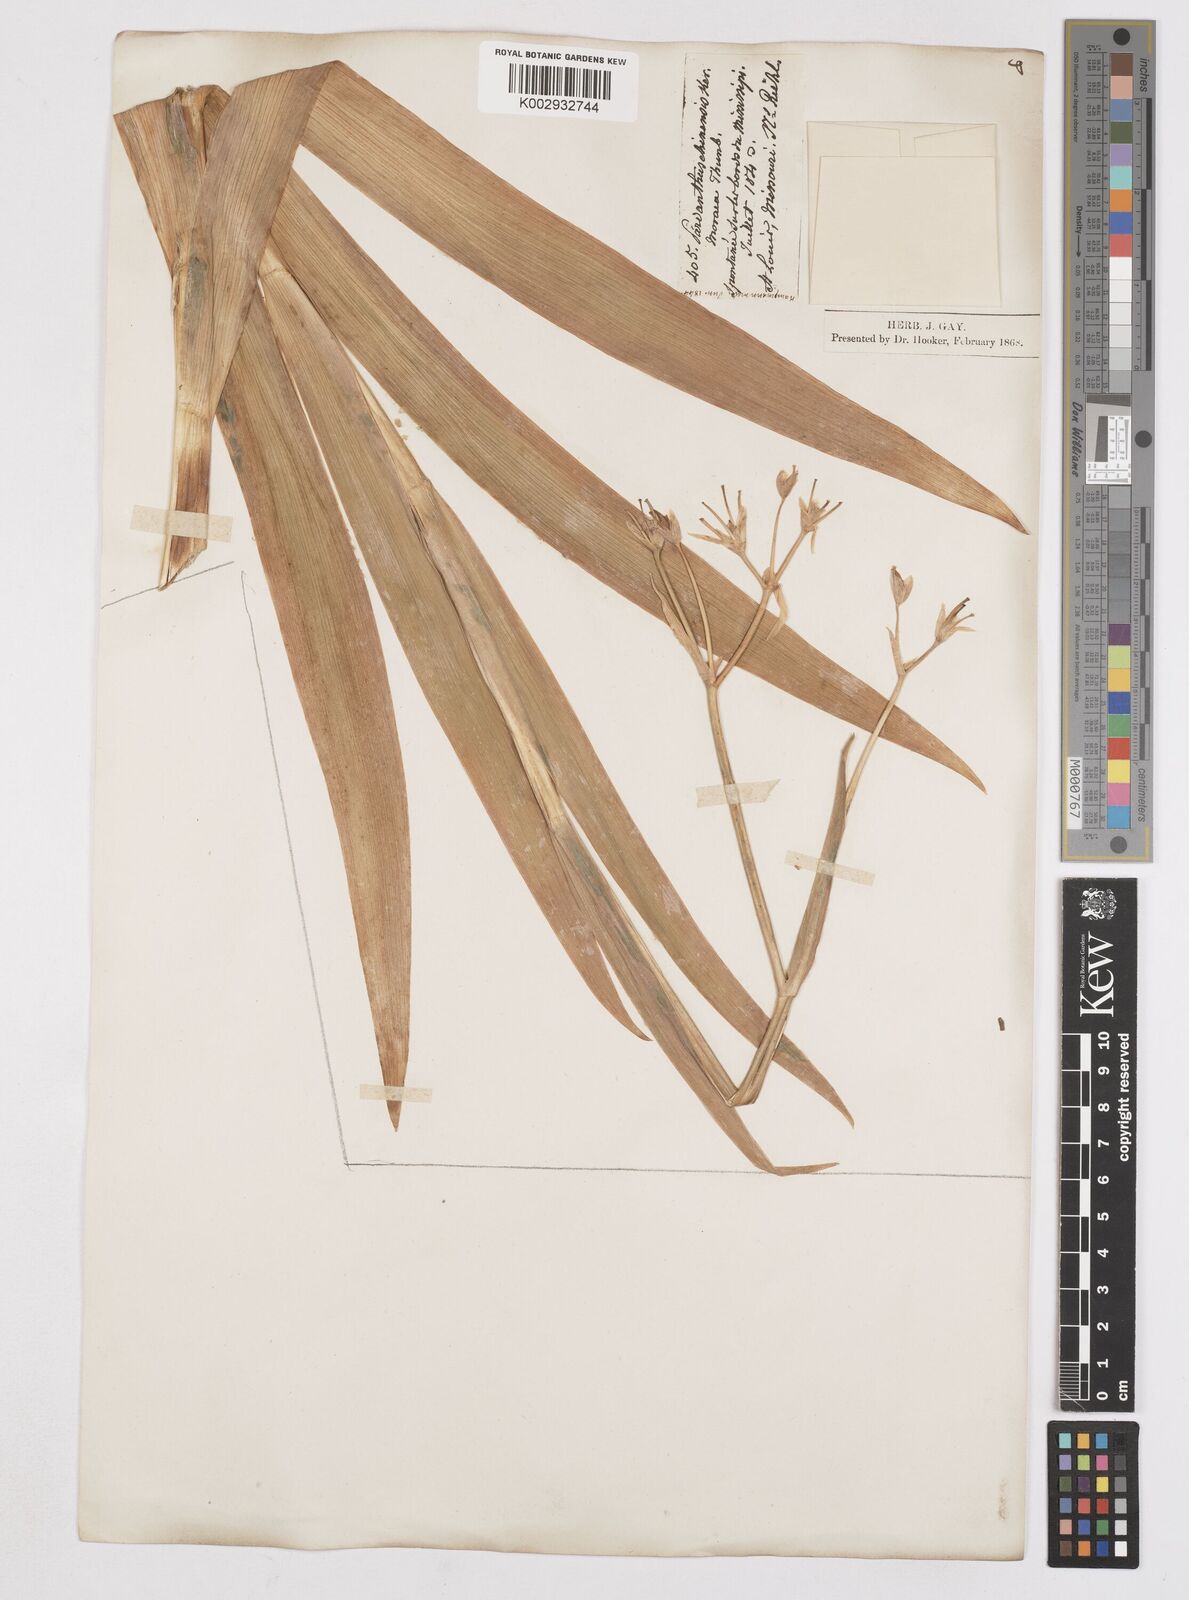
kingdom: Plantae
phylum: Tracheophyta
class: Liliopsida
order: Asparagales
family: Iridaceae
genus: Iris
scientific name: Iris
